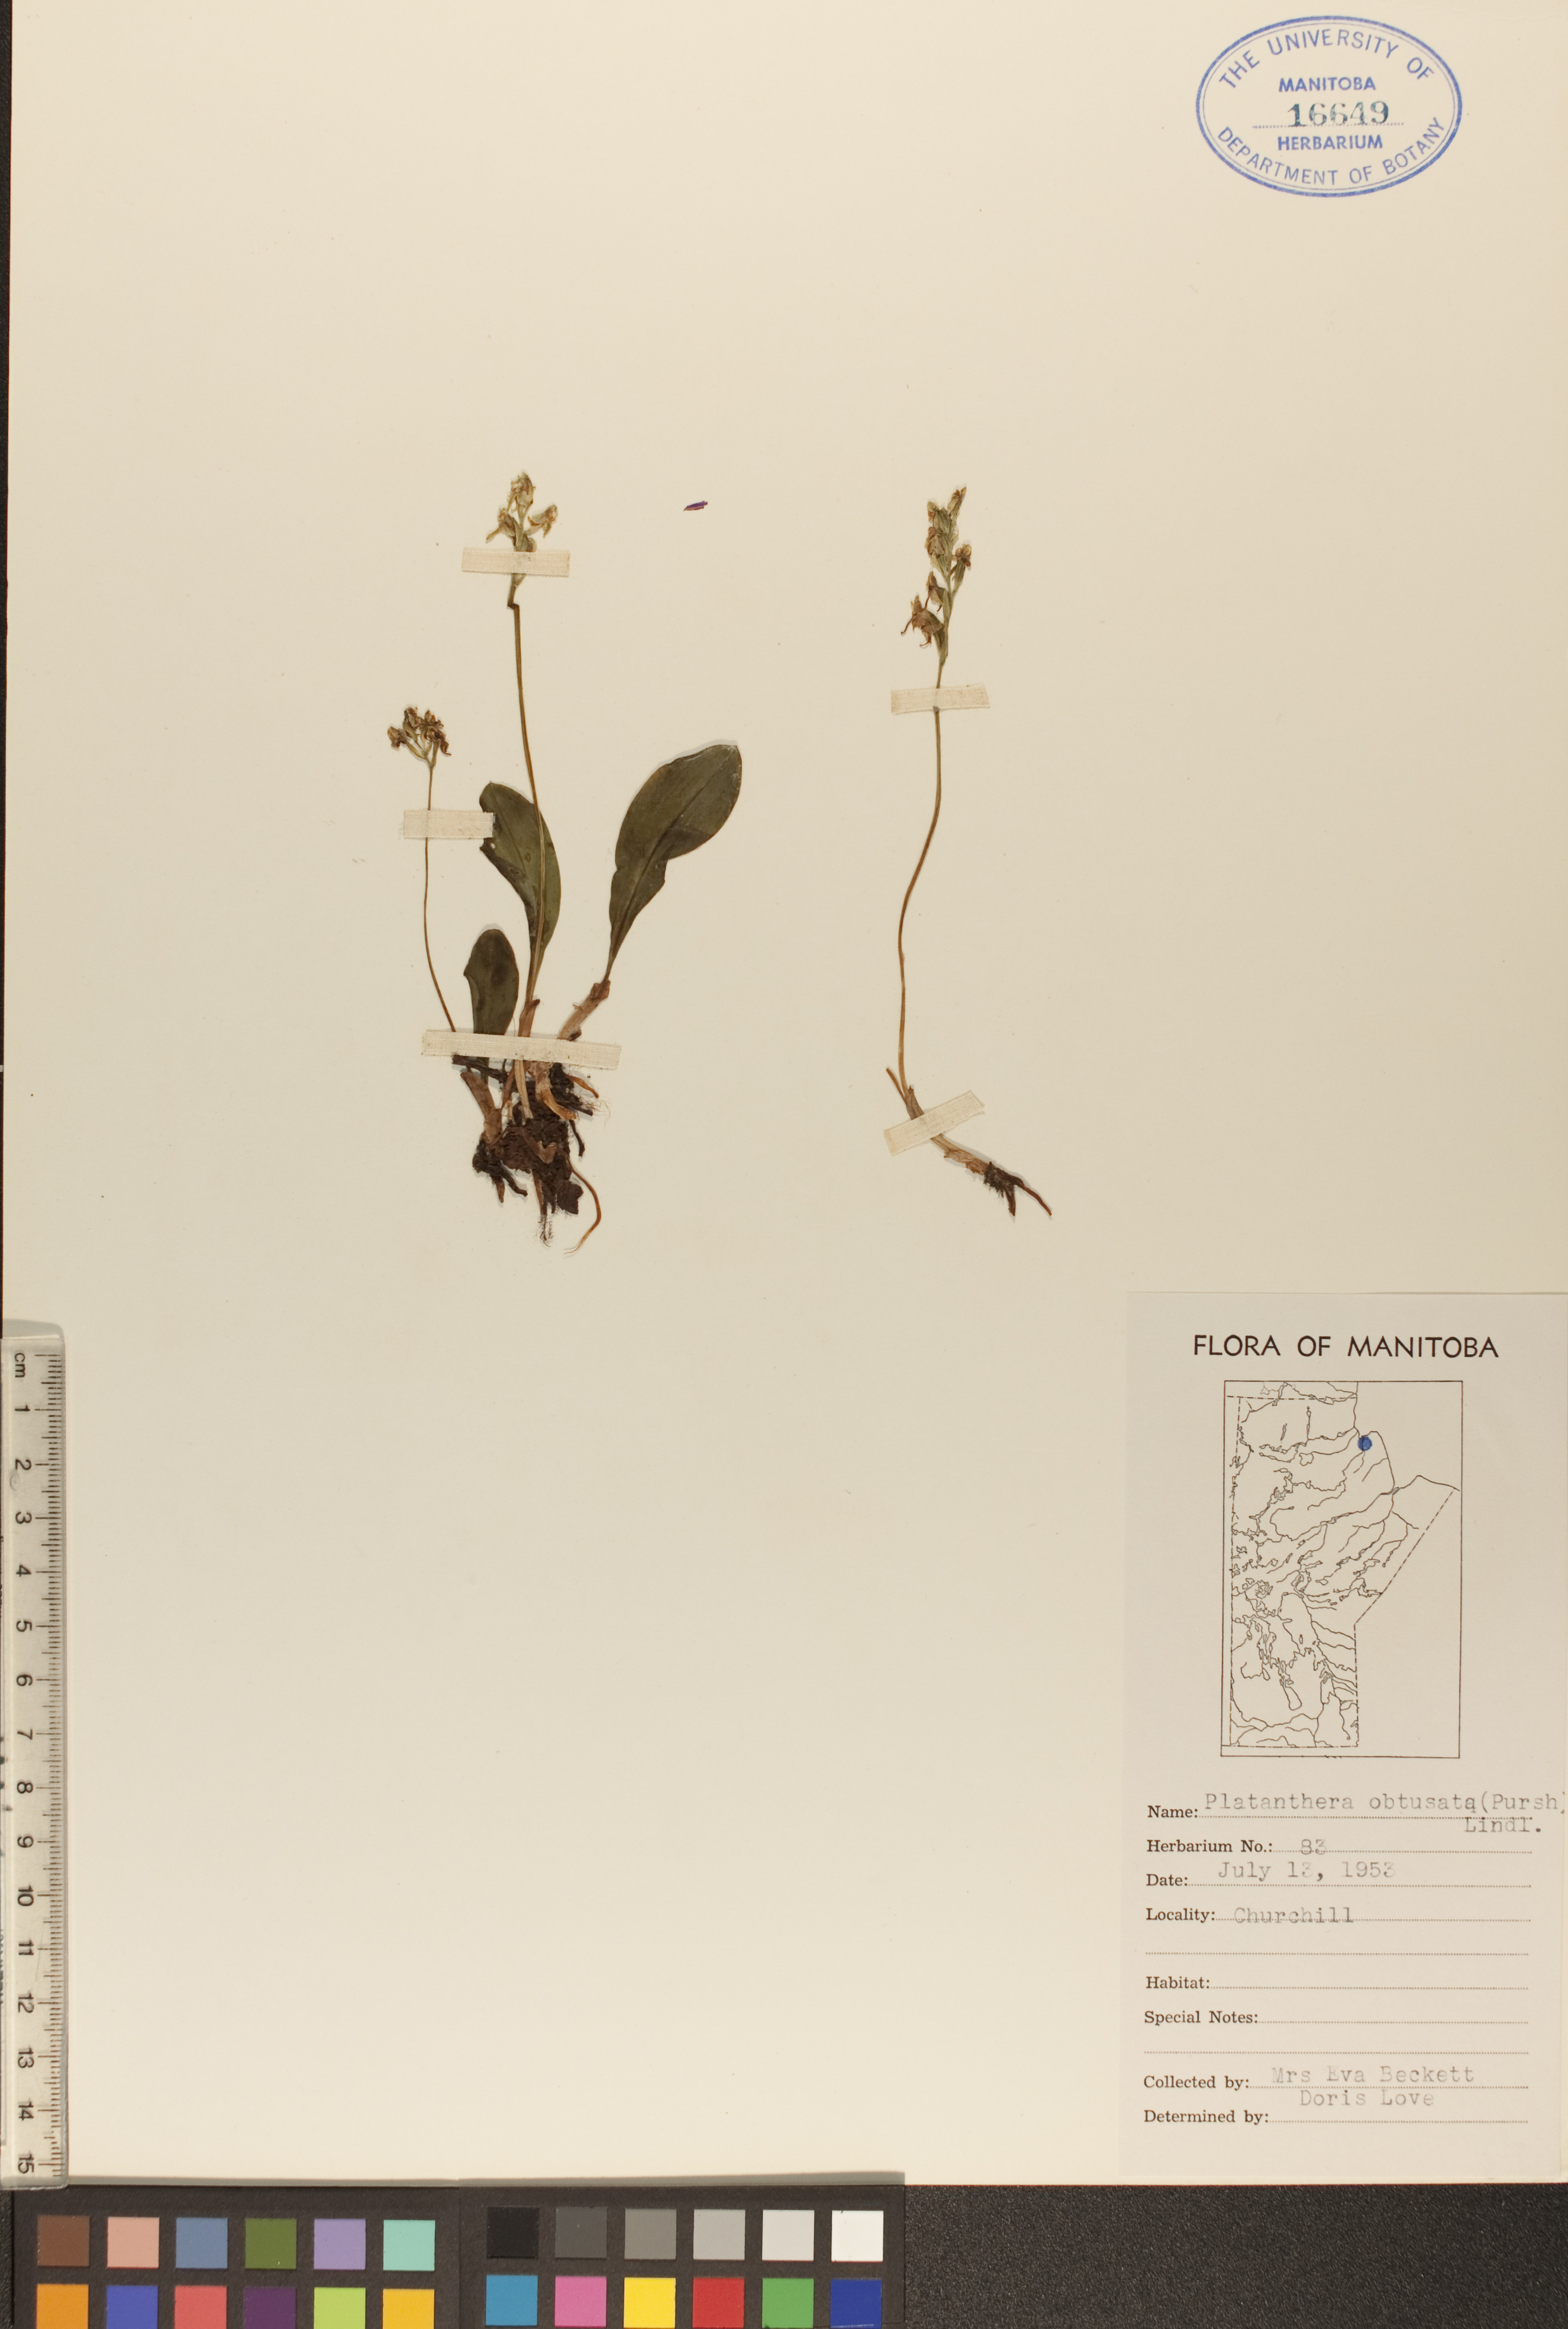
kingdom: Plantae
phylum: Tracheophyta
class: Liliopsida
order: Asparagales
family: Orchidaceae
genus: Platanthera
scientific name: Platanthera obtusata
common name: Blunt bog orchid
